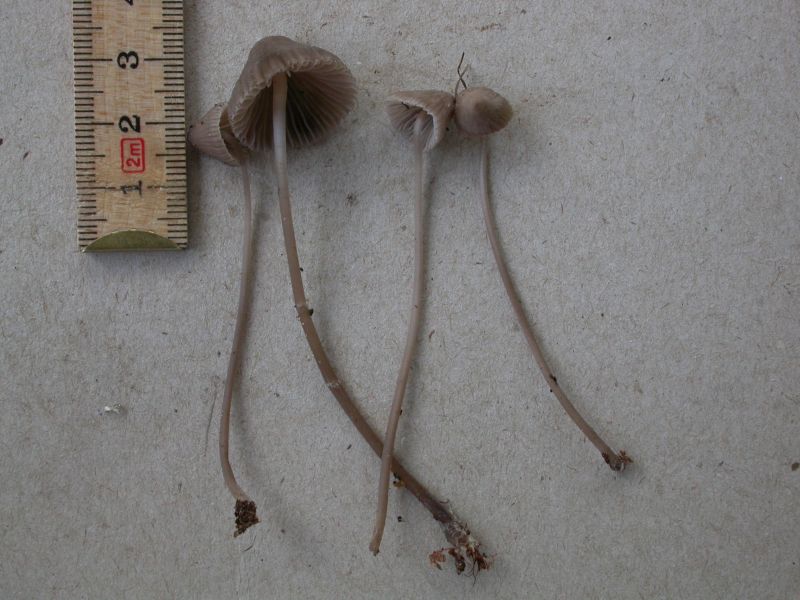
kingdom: Fungi
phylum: Basidiomycota
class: Agaricomycetes
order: Agaricales
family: Mycenaceae
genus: Mycena
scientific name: Mycena leptocephala
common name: klor-huesvamp
